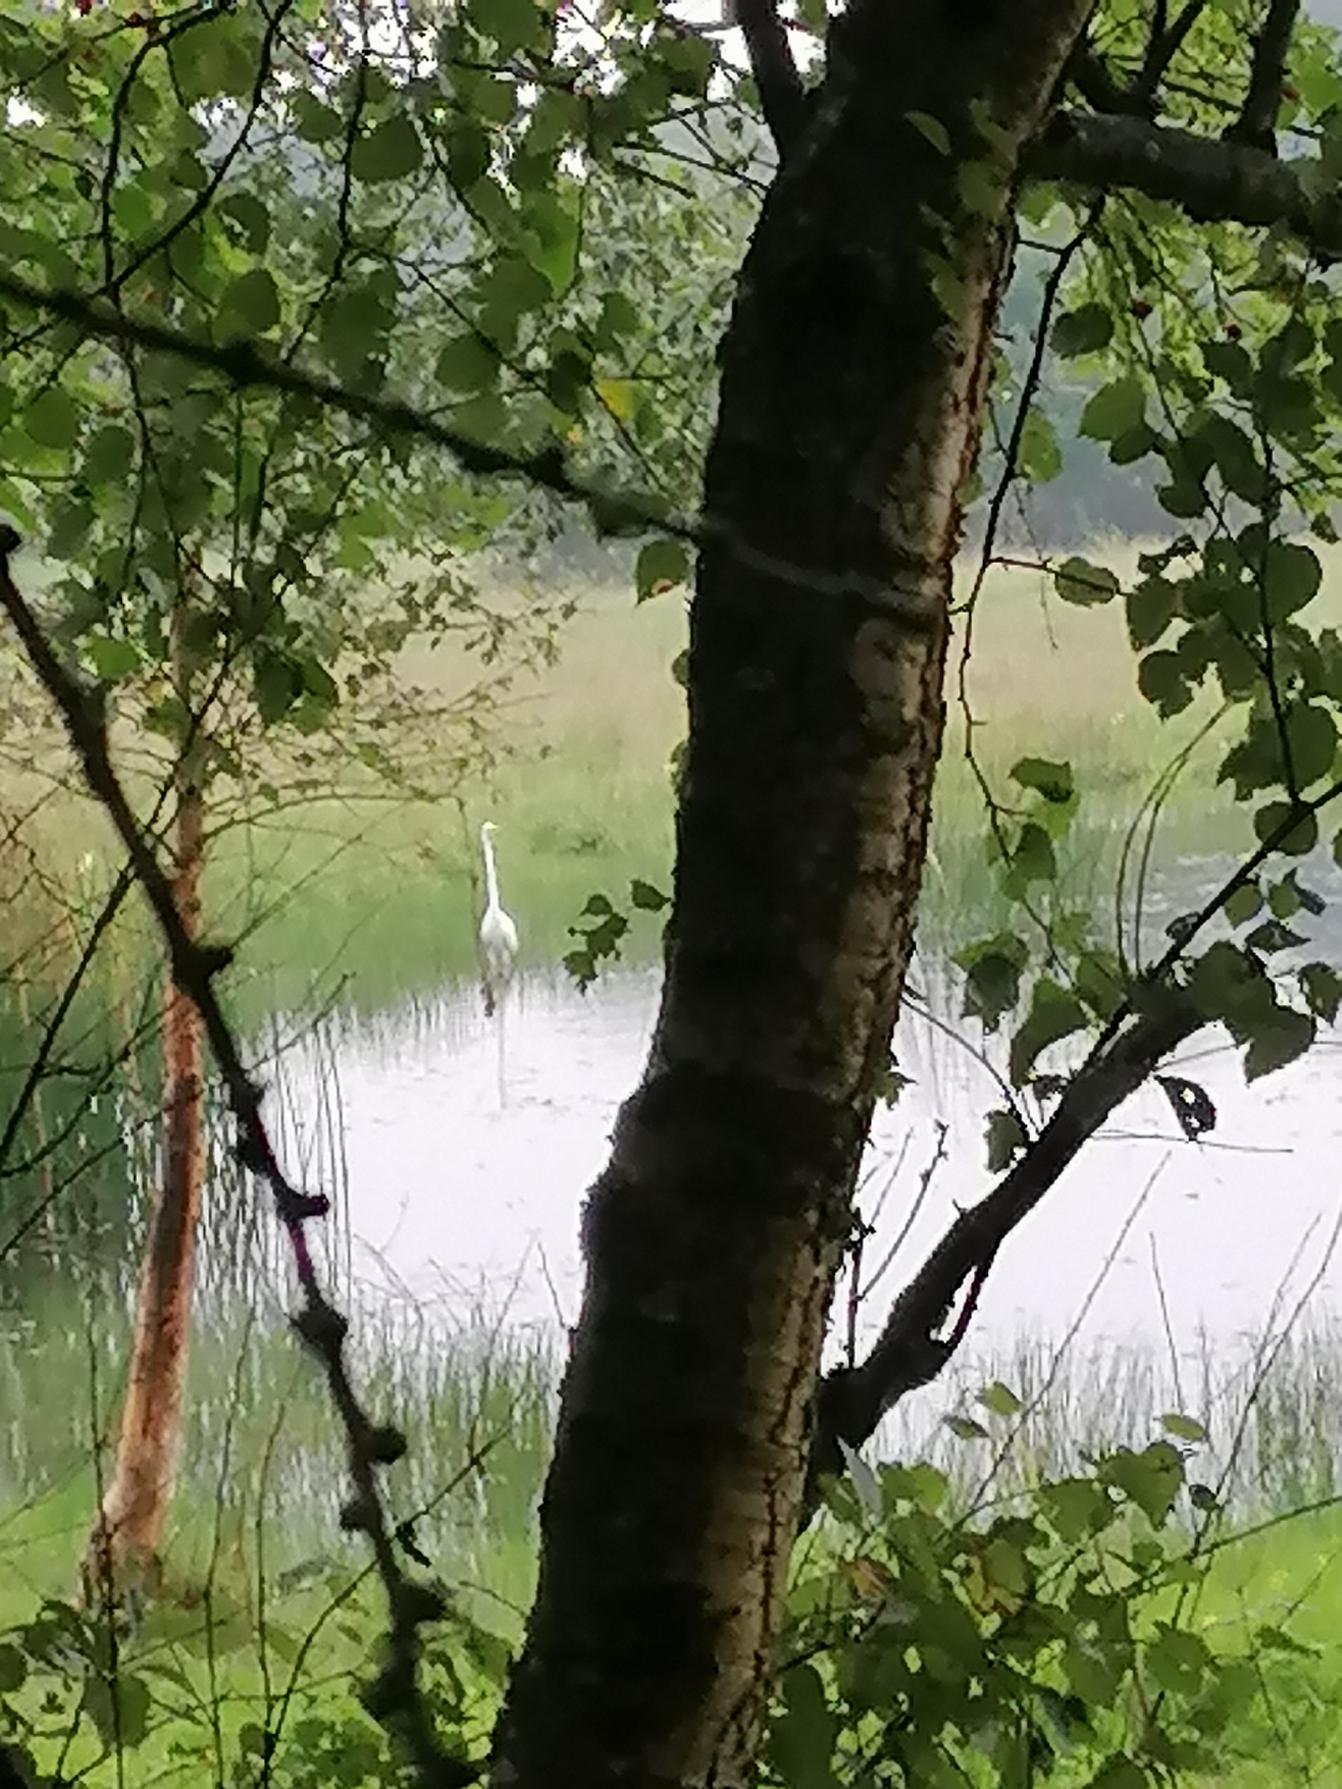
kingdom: Animalia
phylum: Chordata
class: Aves
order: Pelecaniformes
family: Ardeidae
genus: Ardea
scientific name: Ardea alba
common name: Sølvhejre
